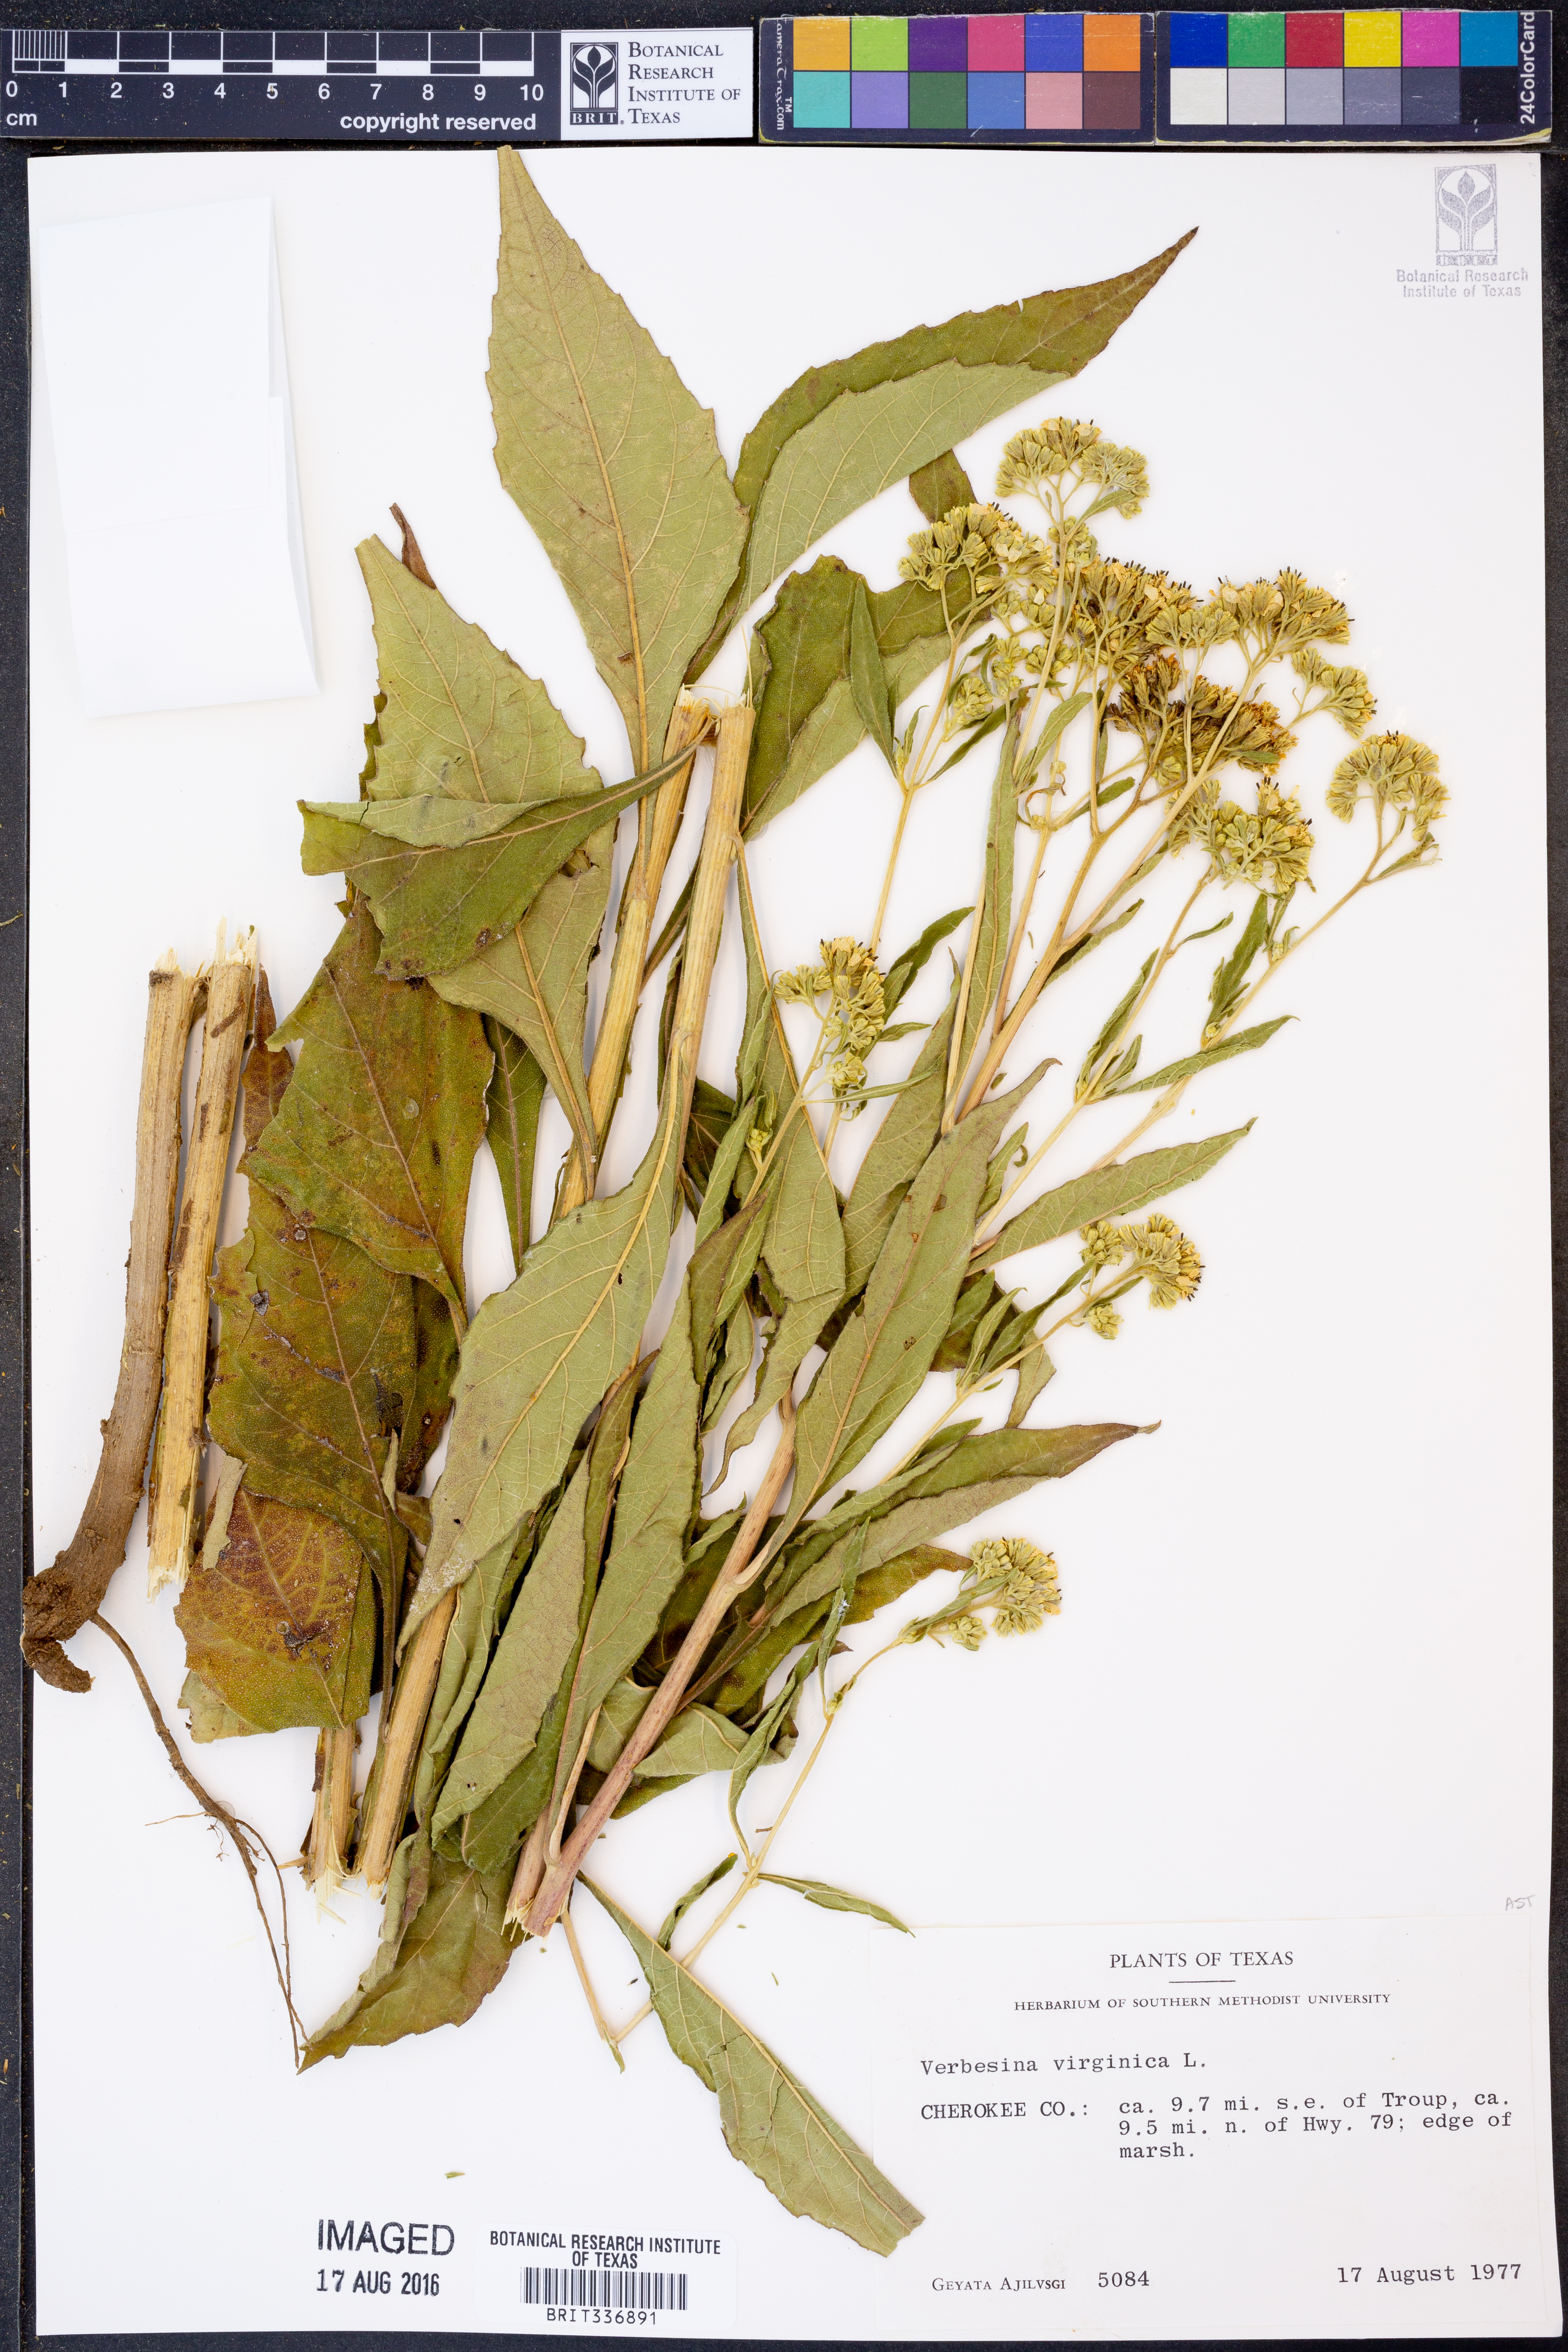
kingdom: Plantae
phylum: Tracheophyta
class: Magnoliopsida
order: Asterales
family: Asteraceae
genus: Verbesina
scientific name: Verbesina virginica
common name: Frostweed
